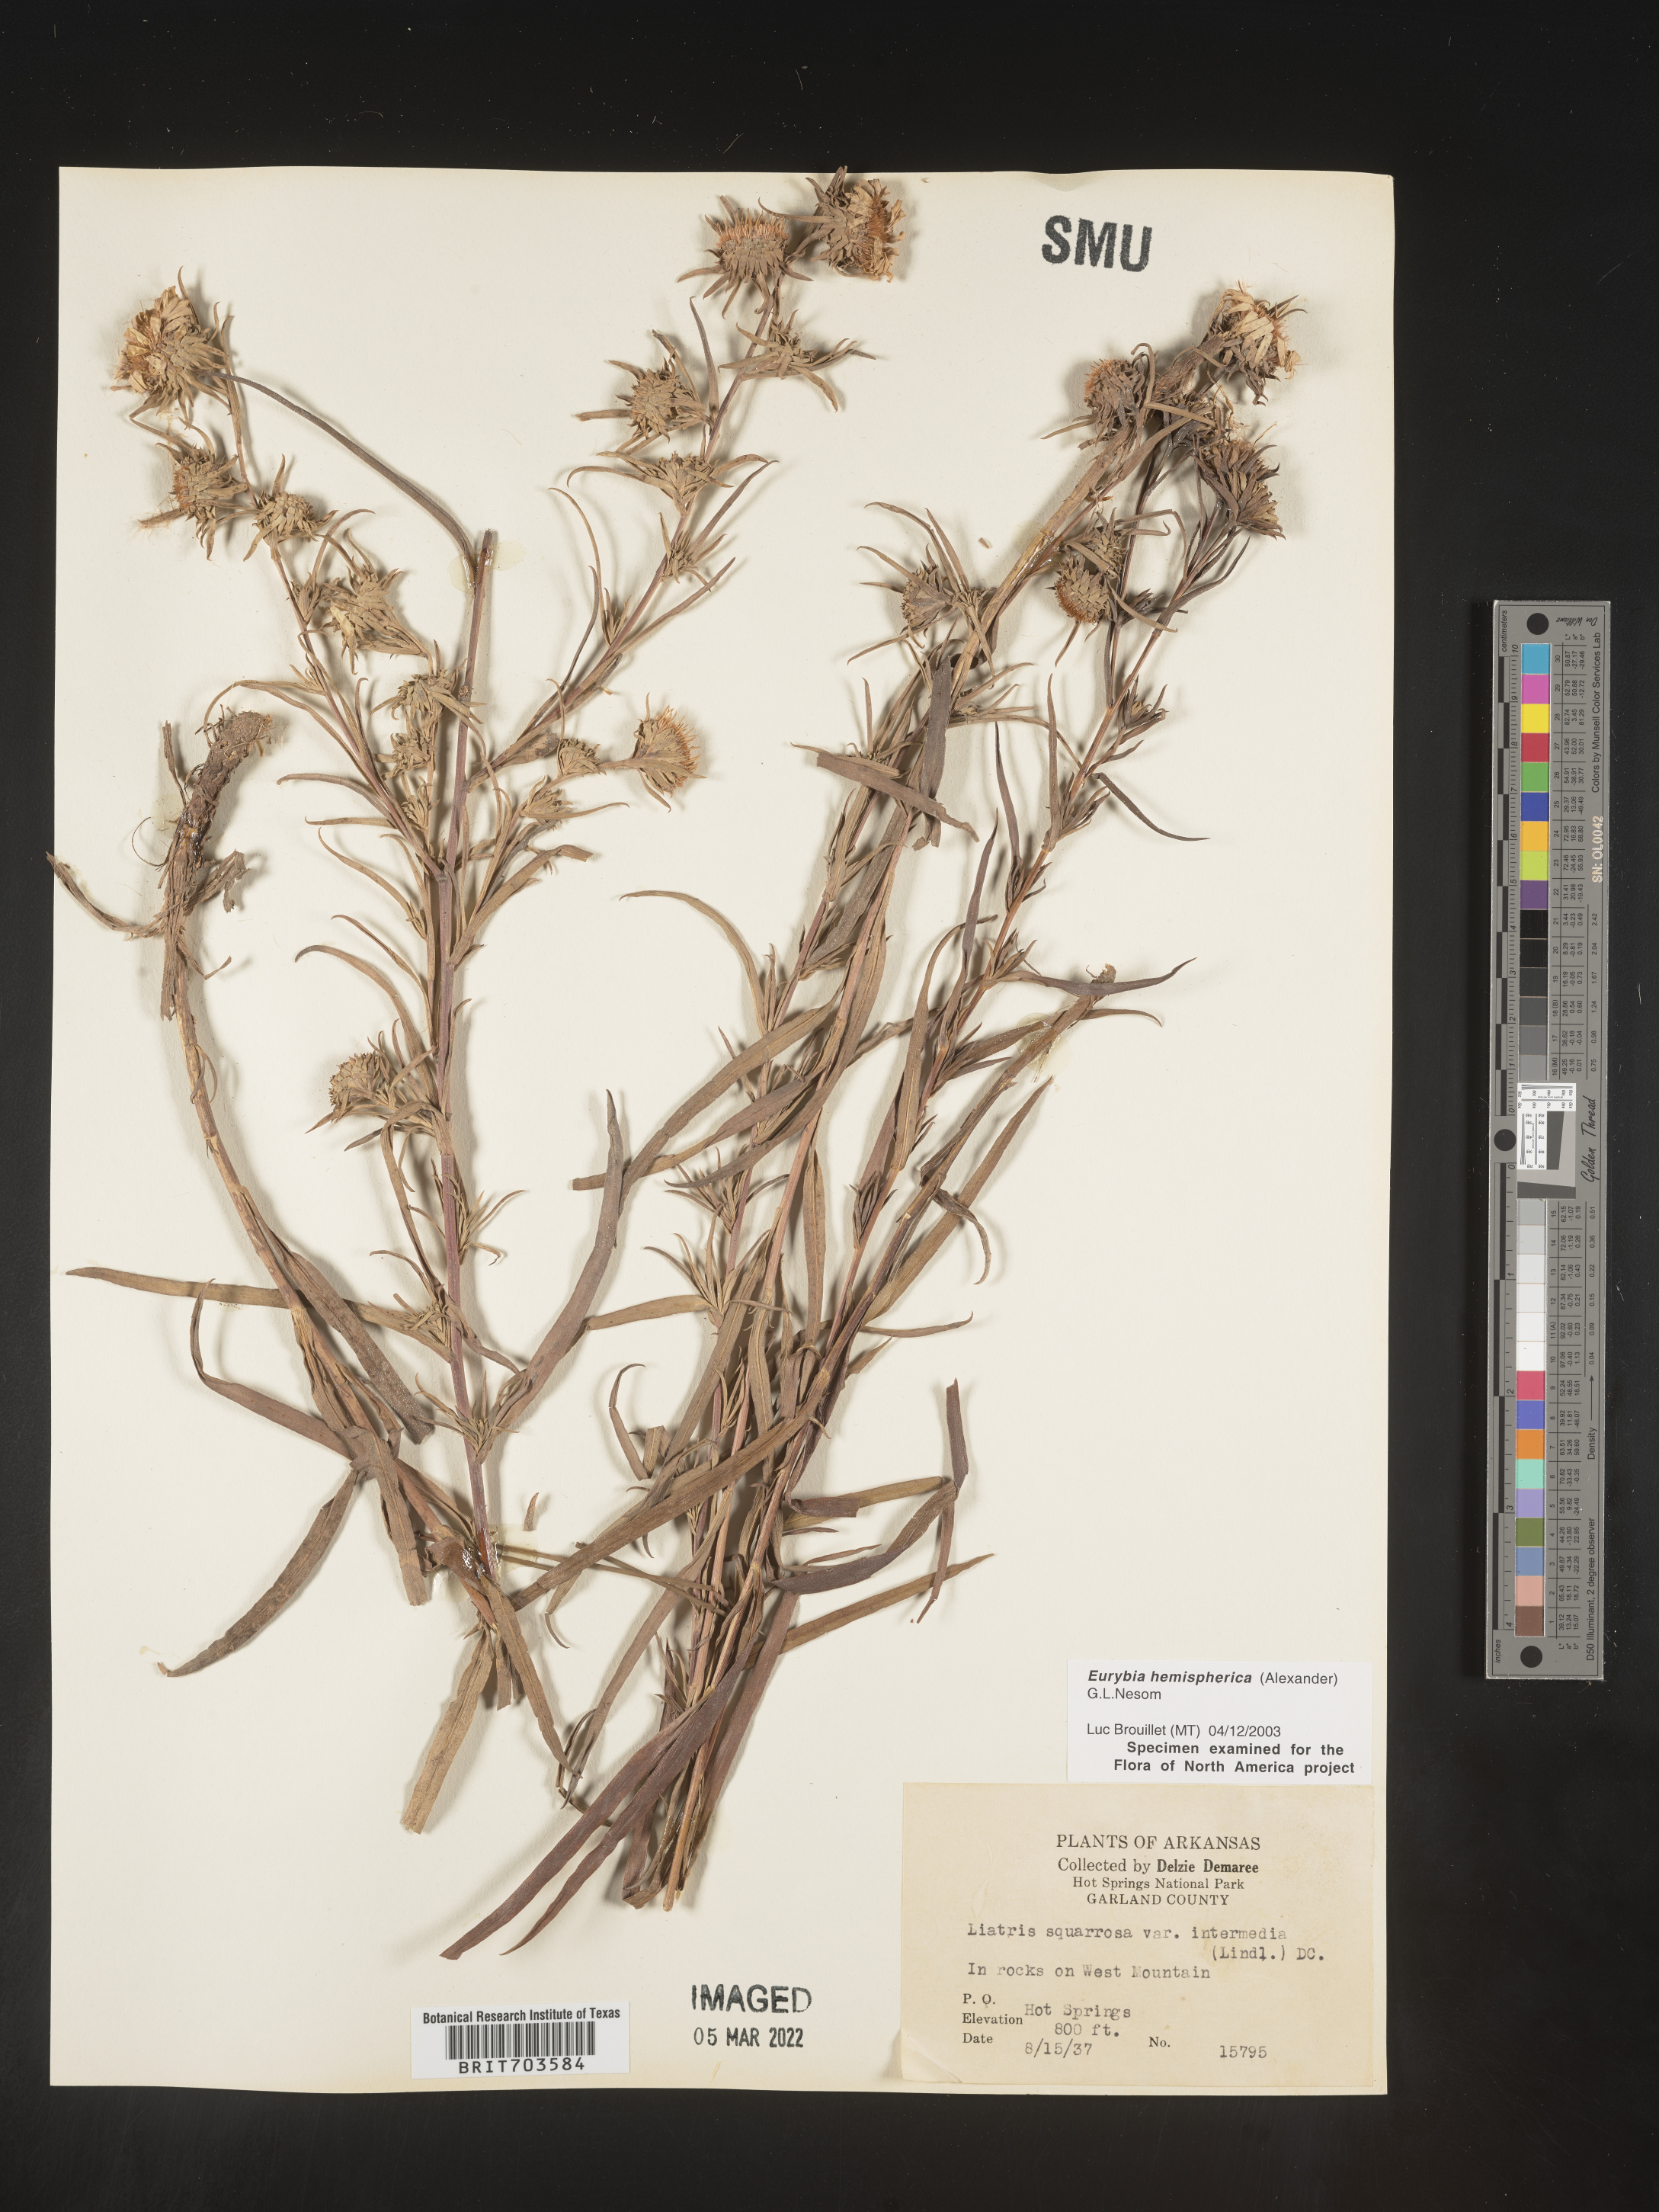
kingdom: Plantae
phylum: Tracheophyta
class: Magnoliopsida
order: Asterales
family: Asteraceae
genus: Eurybia
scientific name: Eurybia hemispherica
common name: Showy aster
